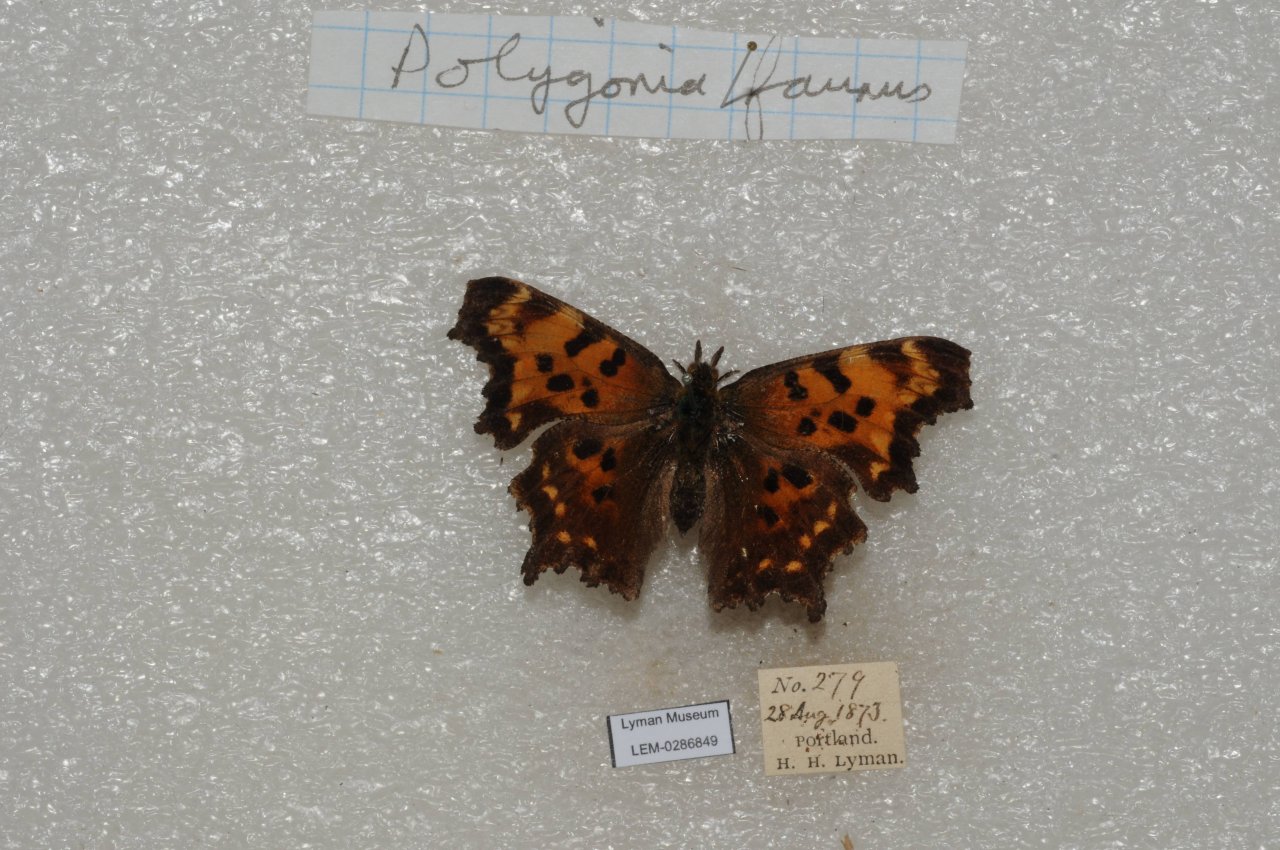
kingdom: Animalia
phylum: Arthropoda
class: Insecta
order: Lepidoptera
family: Nymphalidae
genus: Polygonia
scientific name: Polygonia faunus
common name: Green Comma
